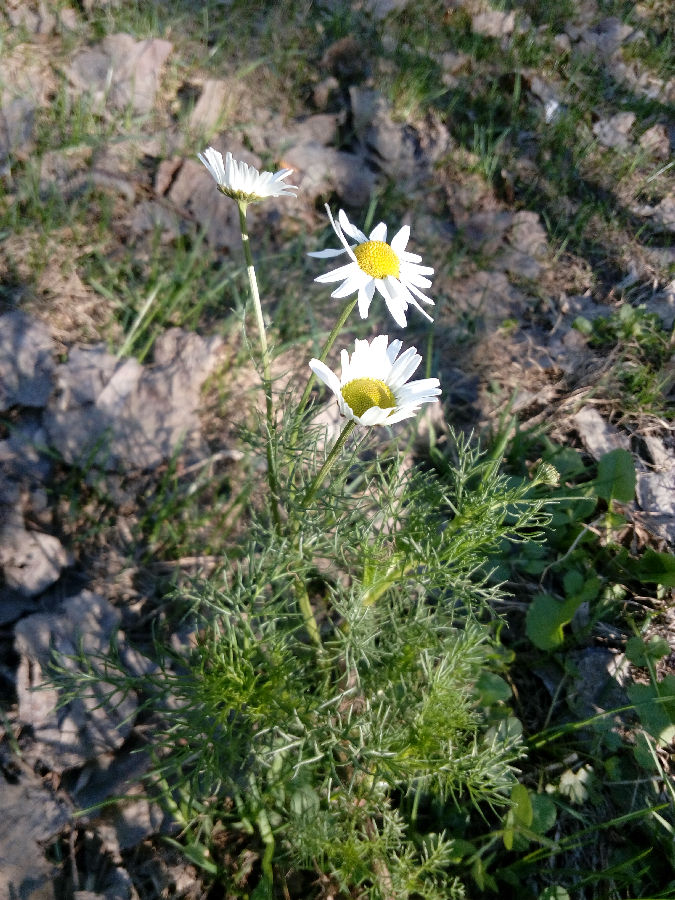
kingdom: Plantae
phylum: Tracheophyta
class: Magnoliopsida
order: Asterales
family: Asteraceae
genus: Tripleurospermum
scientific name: Tripleurospermum inodorum
